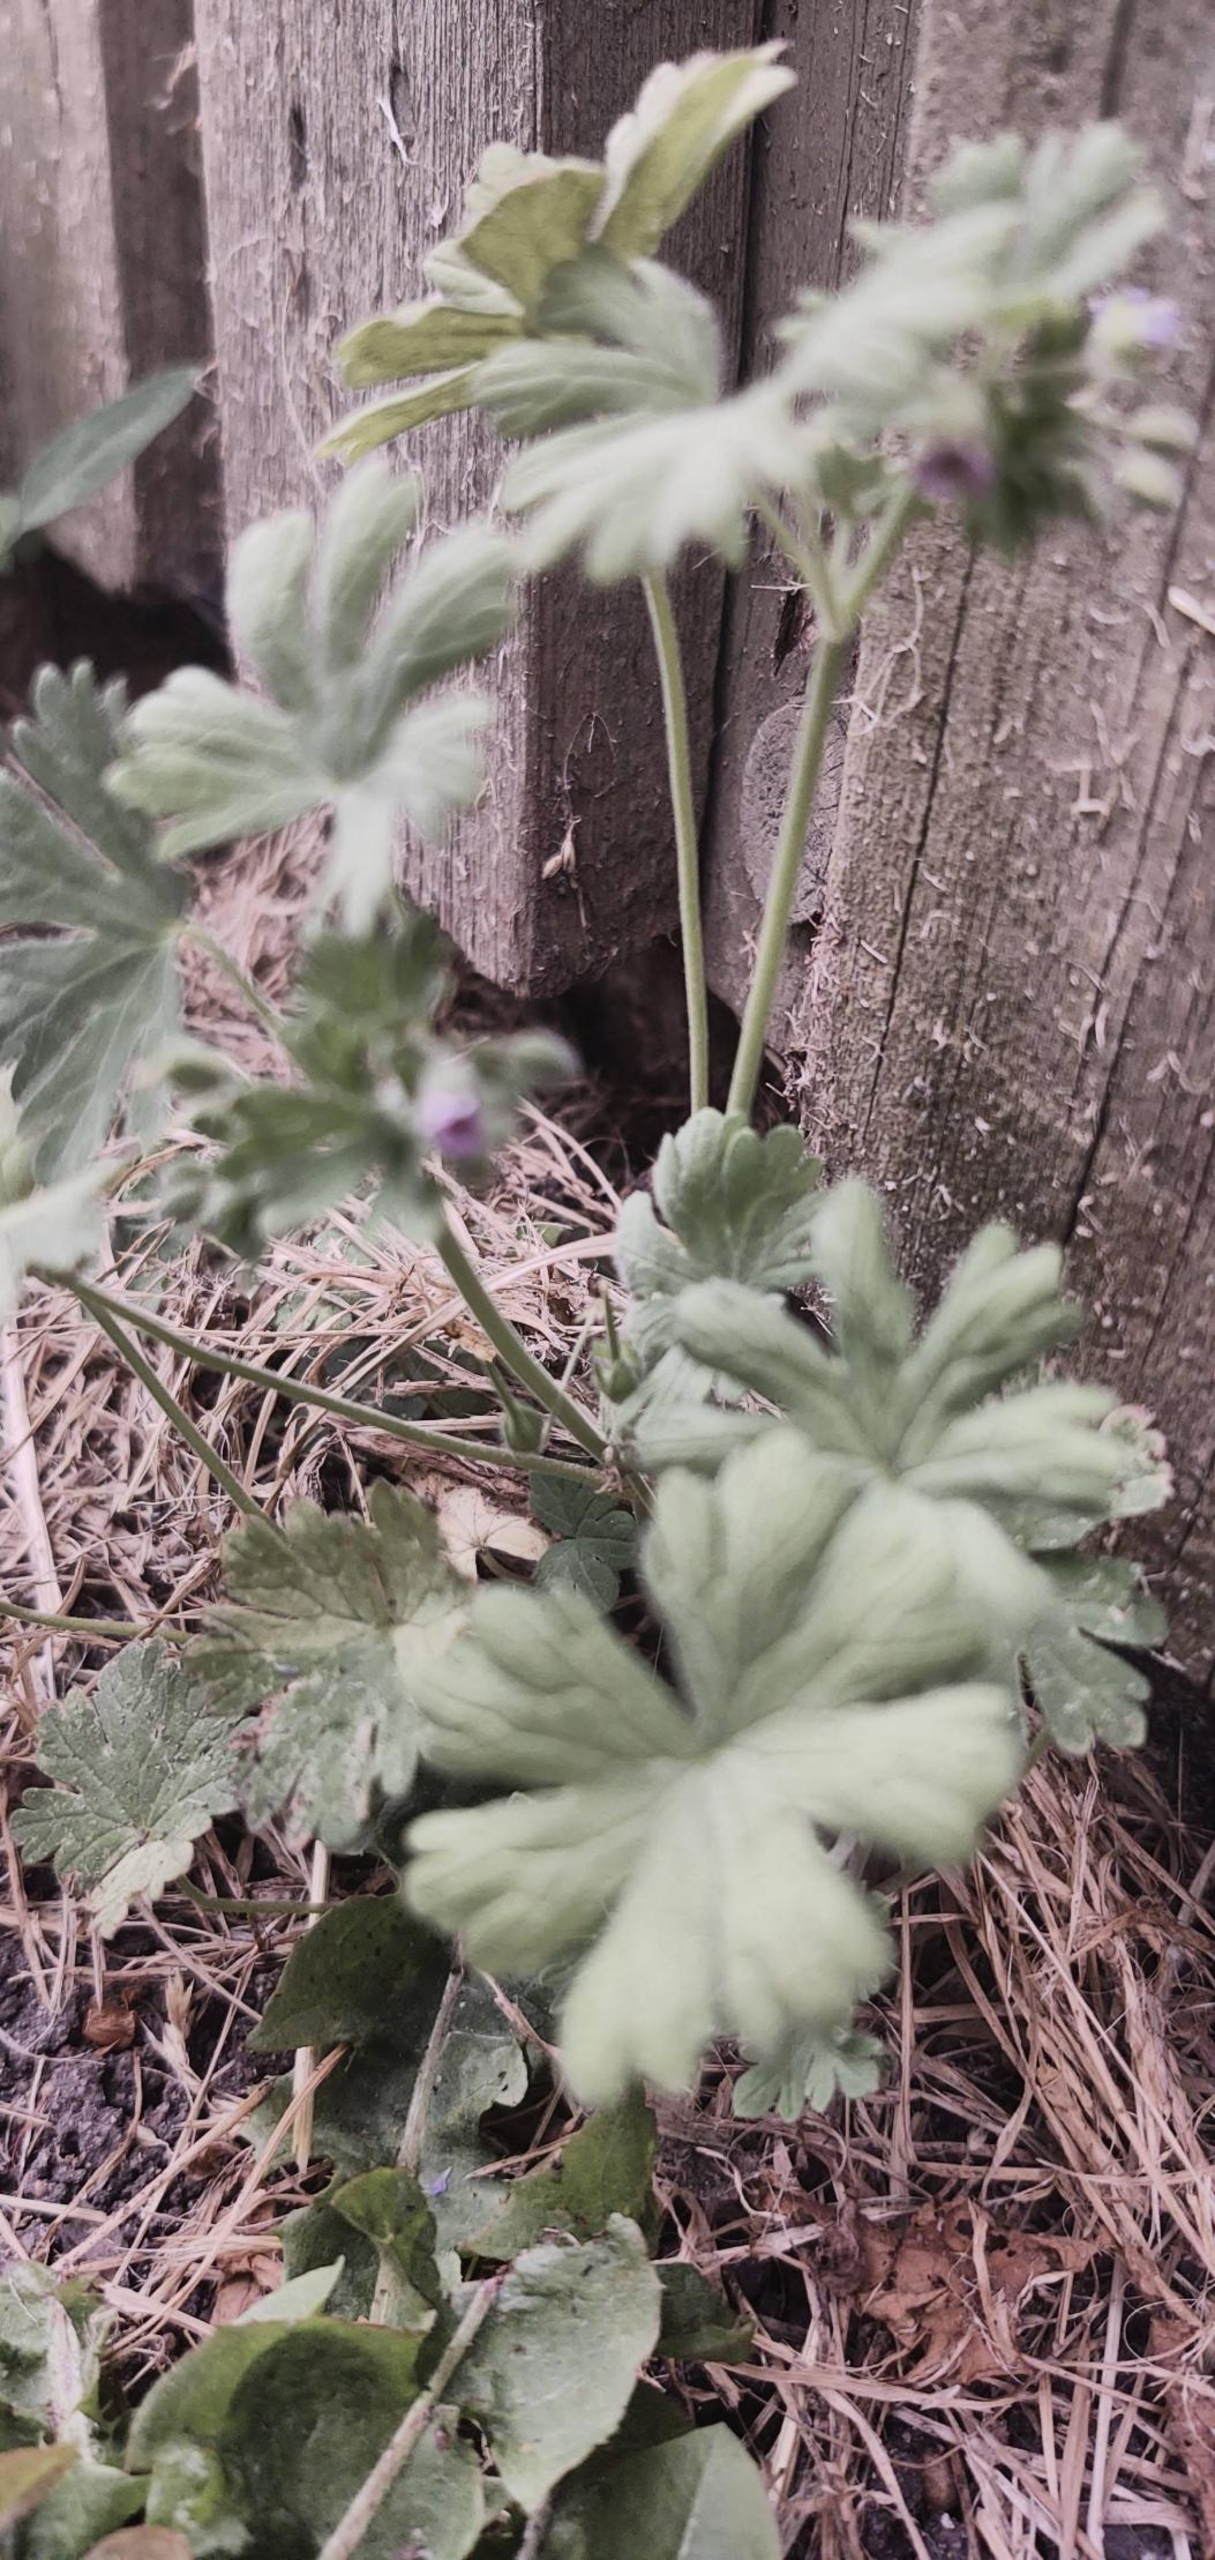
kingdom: Plantae
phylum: Tracheophyta
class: Magnoliopsida
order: Geraniales
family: Geraniaceae
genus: Geranium
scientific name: Geranium pusillum
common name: Liden storkenæb
